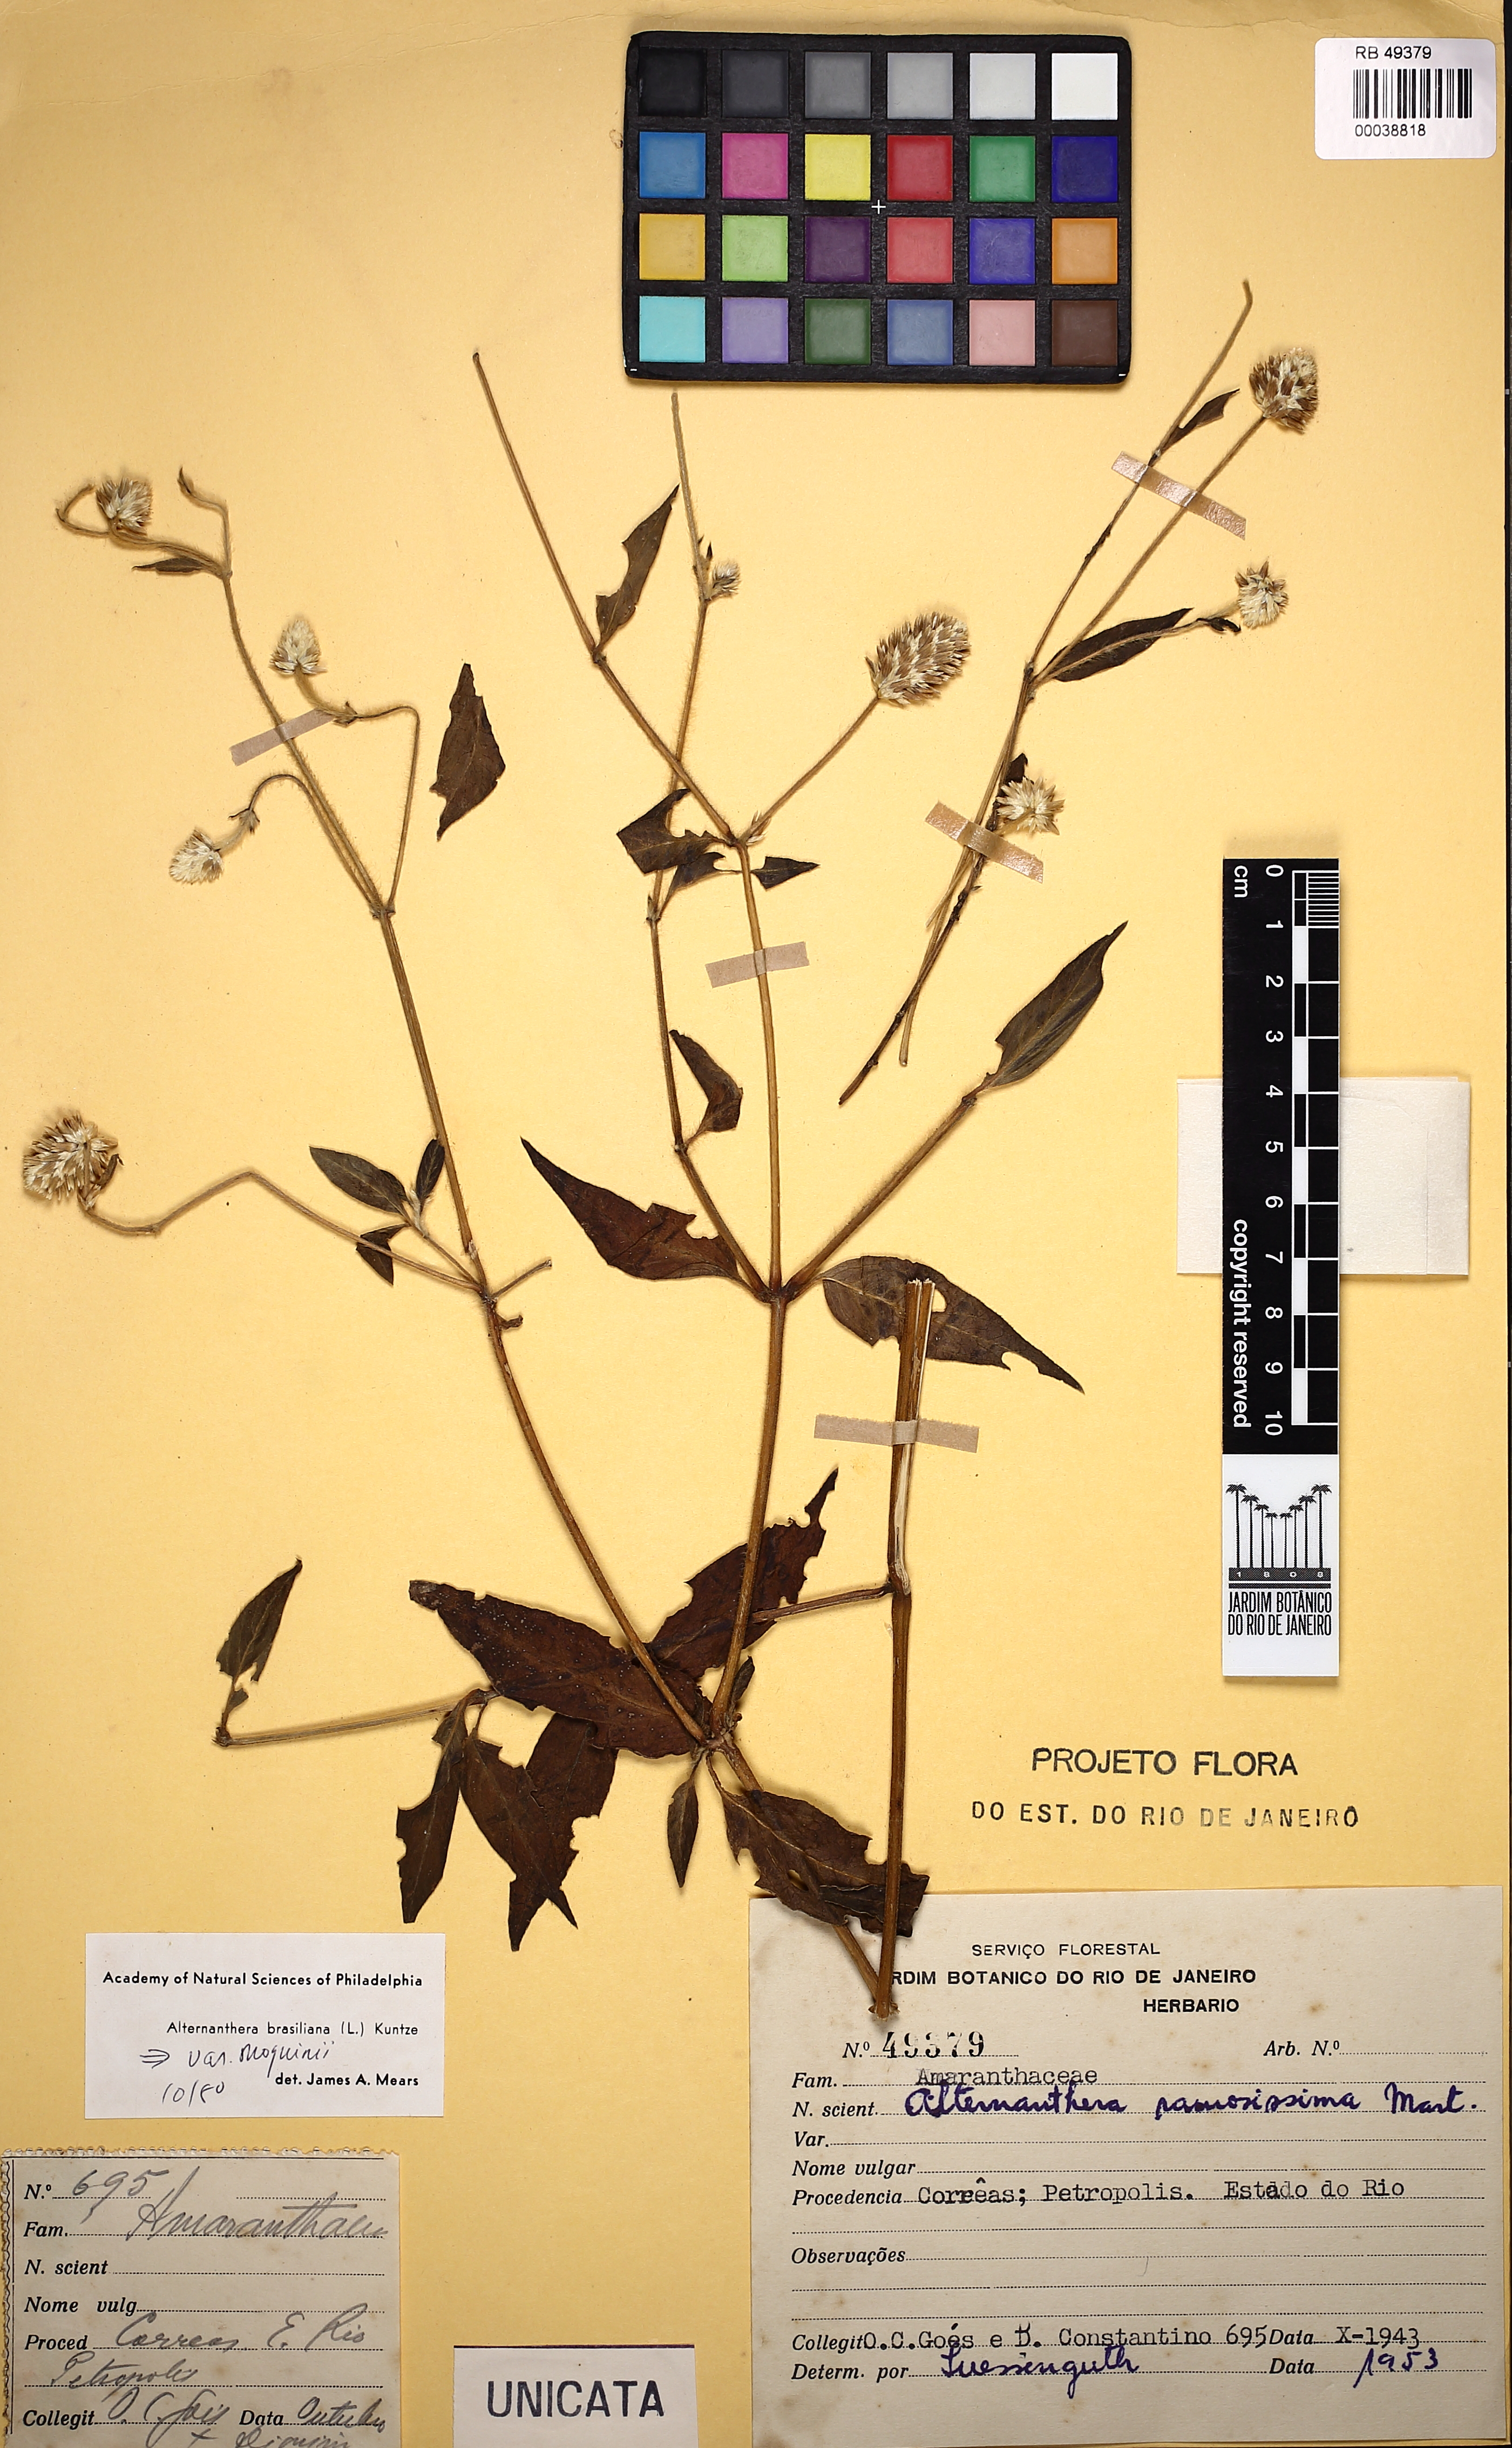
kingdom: Plantae
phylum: Tracheophyta
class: Magnoliopsida
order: Caryophyllales
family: Amaranthaceae
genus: Alternanthera
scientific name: Alternanthera brasiliana
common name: Brazilian joyweed
